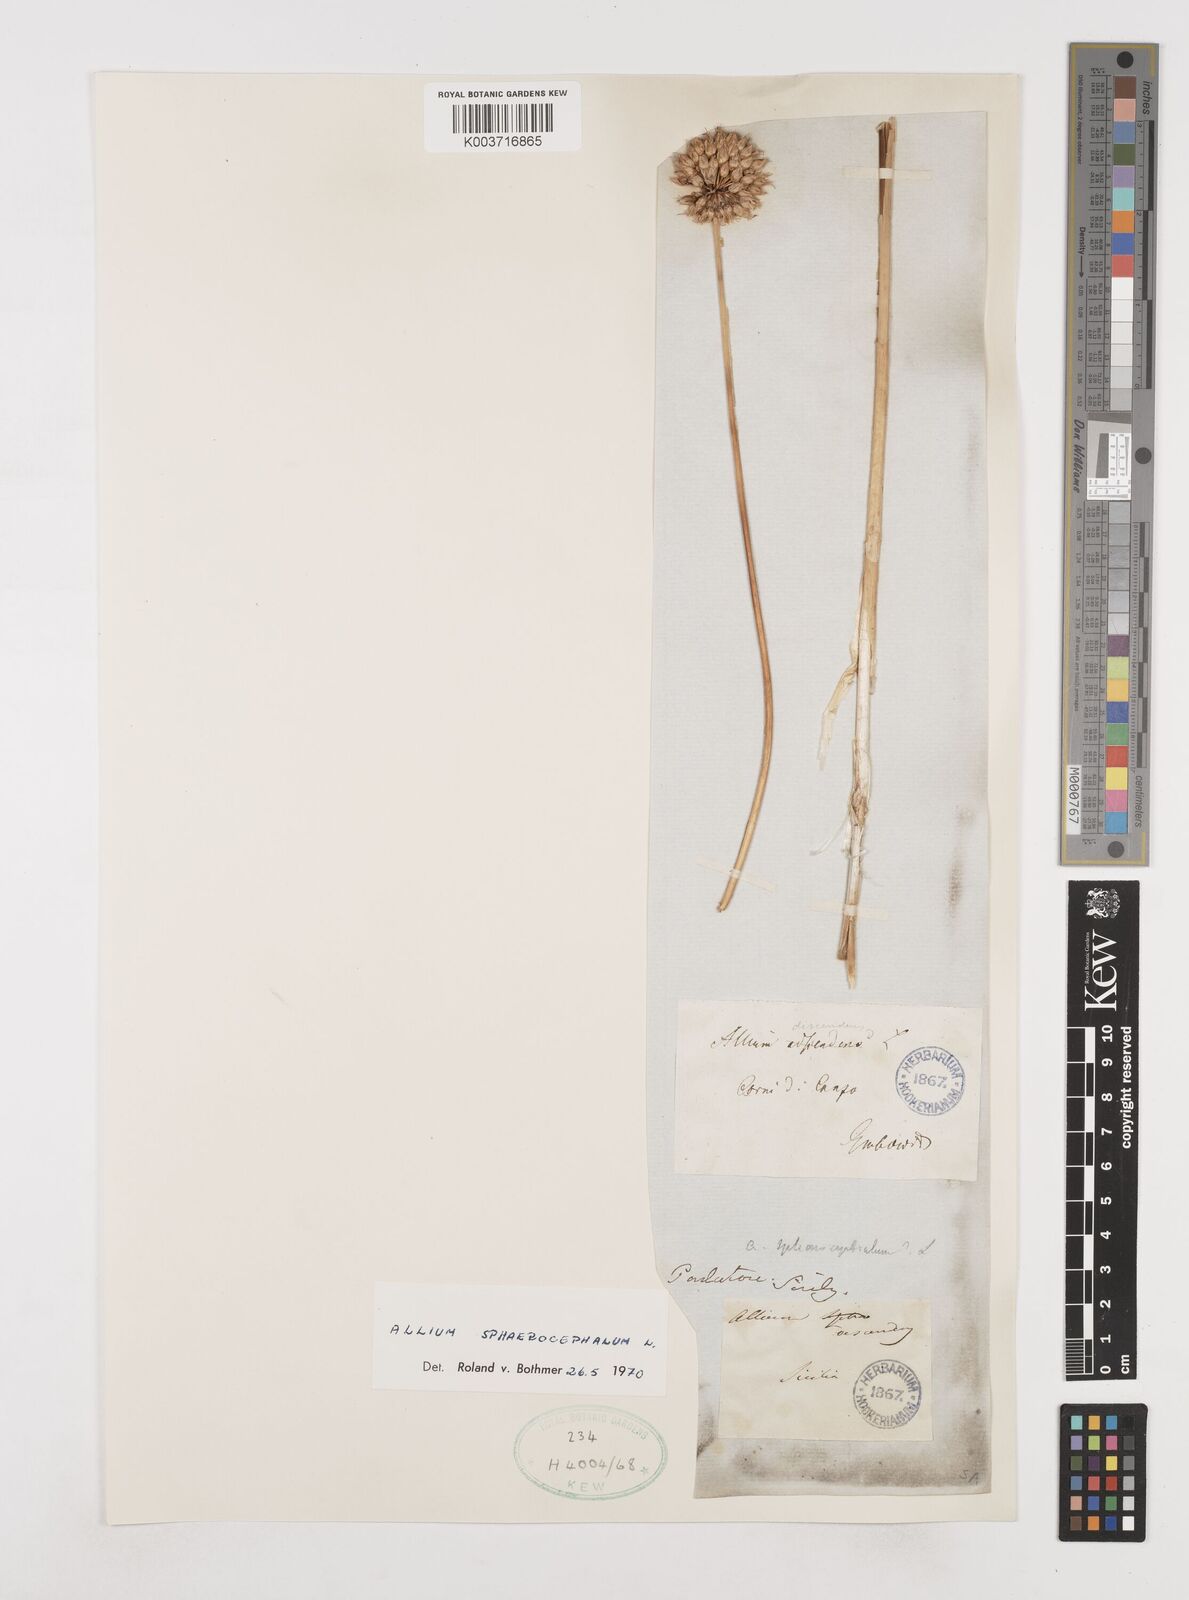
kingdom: Plantae
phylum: Tracheophyta
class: Liliopsida
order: Asparagales
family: Amaryllidaceae
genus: Allium
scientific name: Allium sphaerocephalon
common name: Round-headed leek
